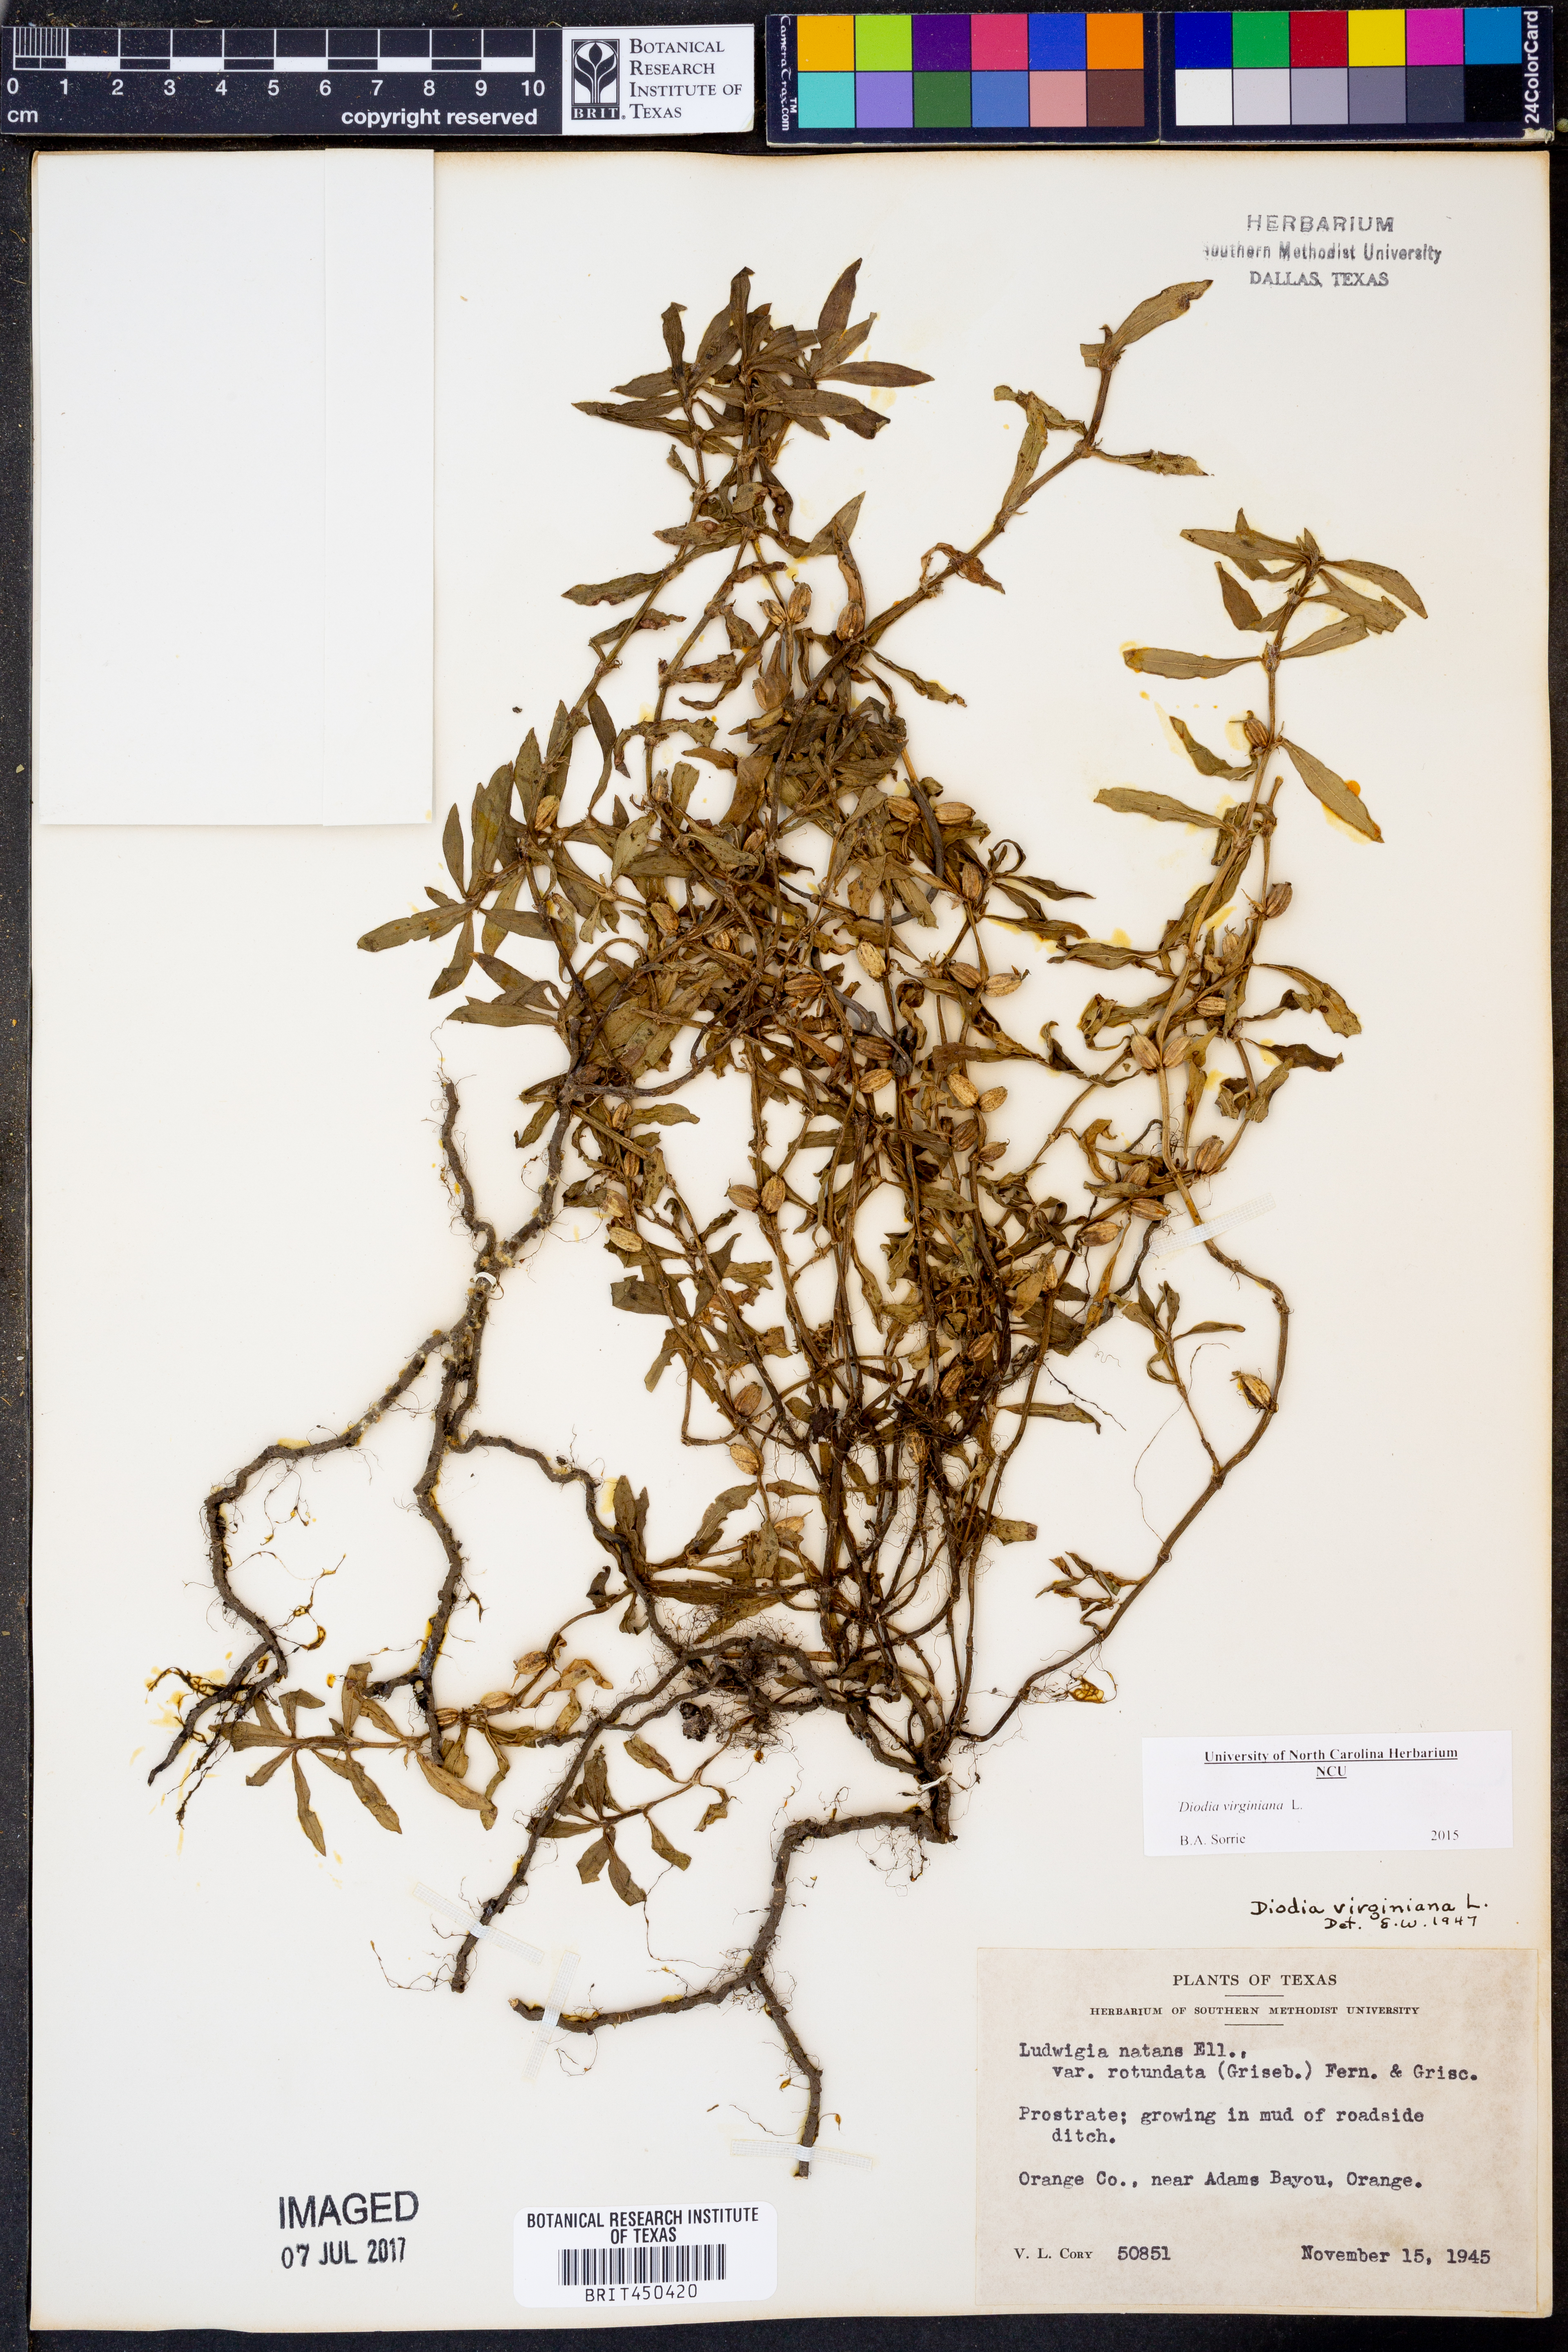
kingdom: Plantae
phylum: Tracheophyta
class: Magnoliopsida
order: Gentianales
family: Rubiaceae
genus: Diodia
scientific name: Diodia virginiana
